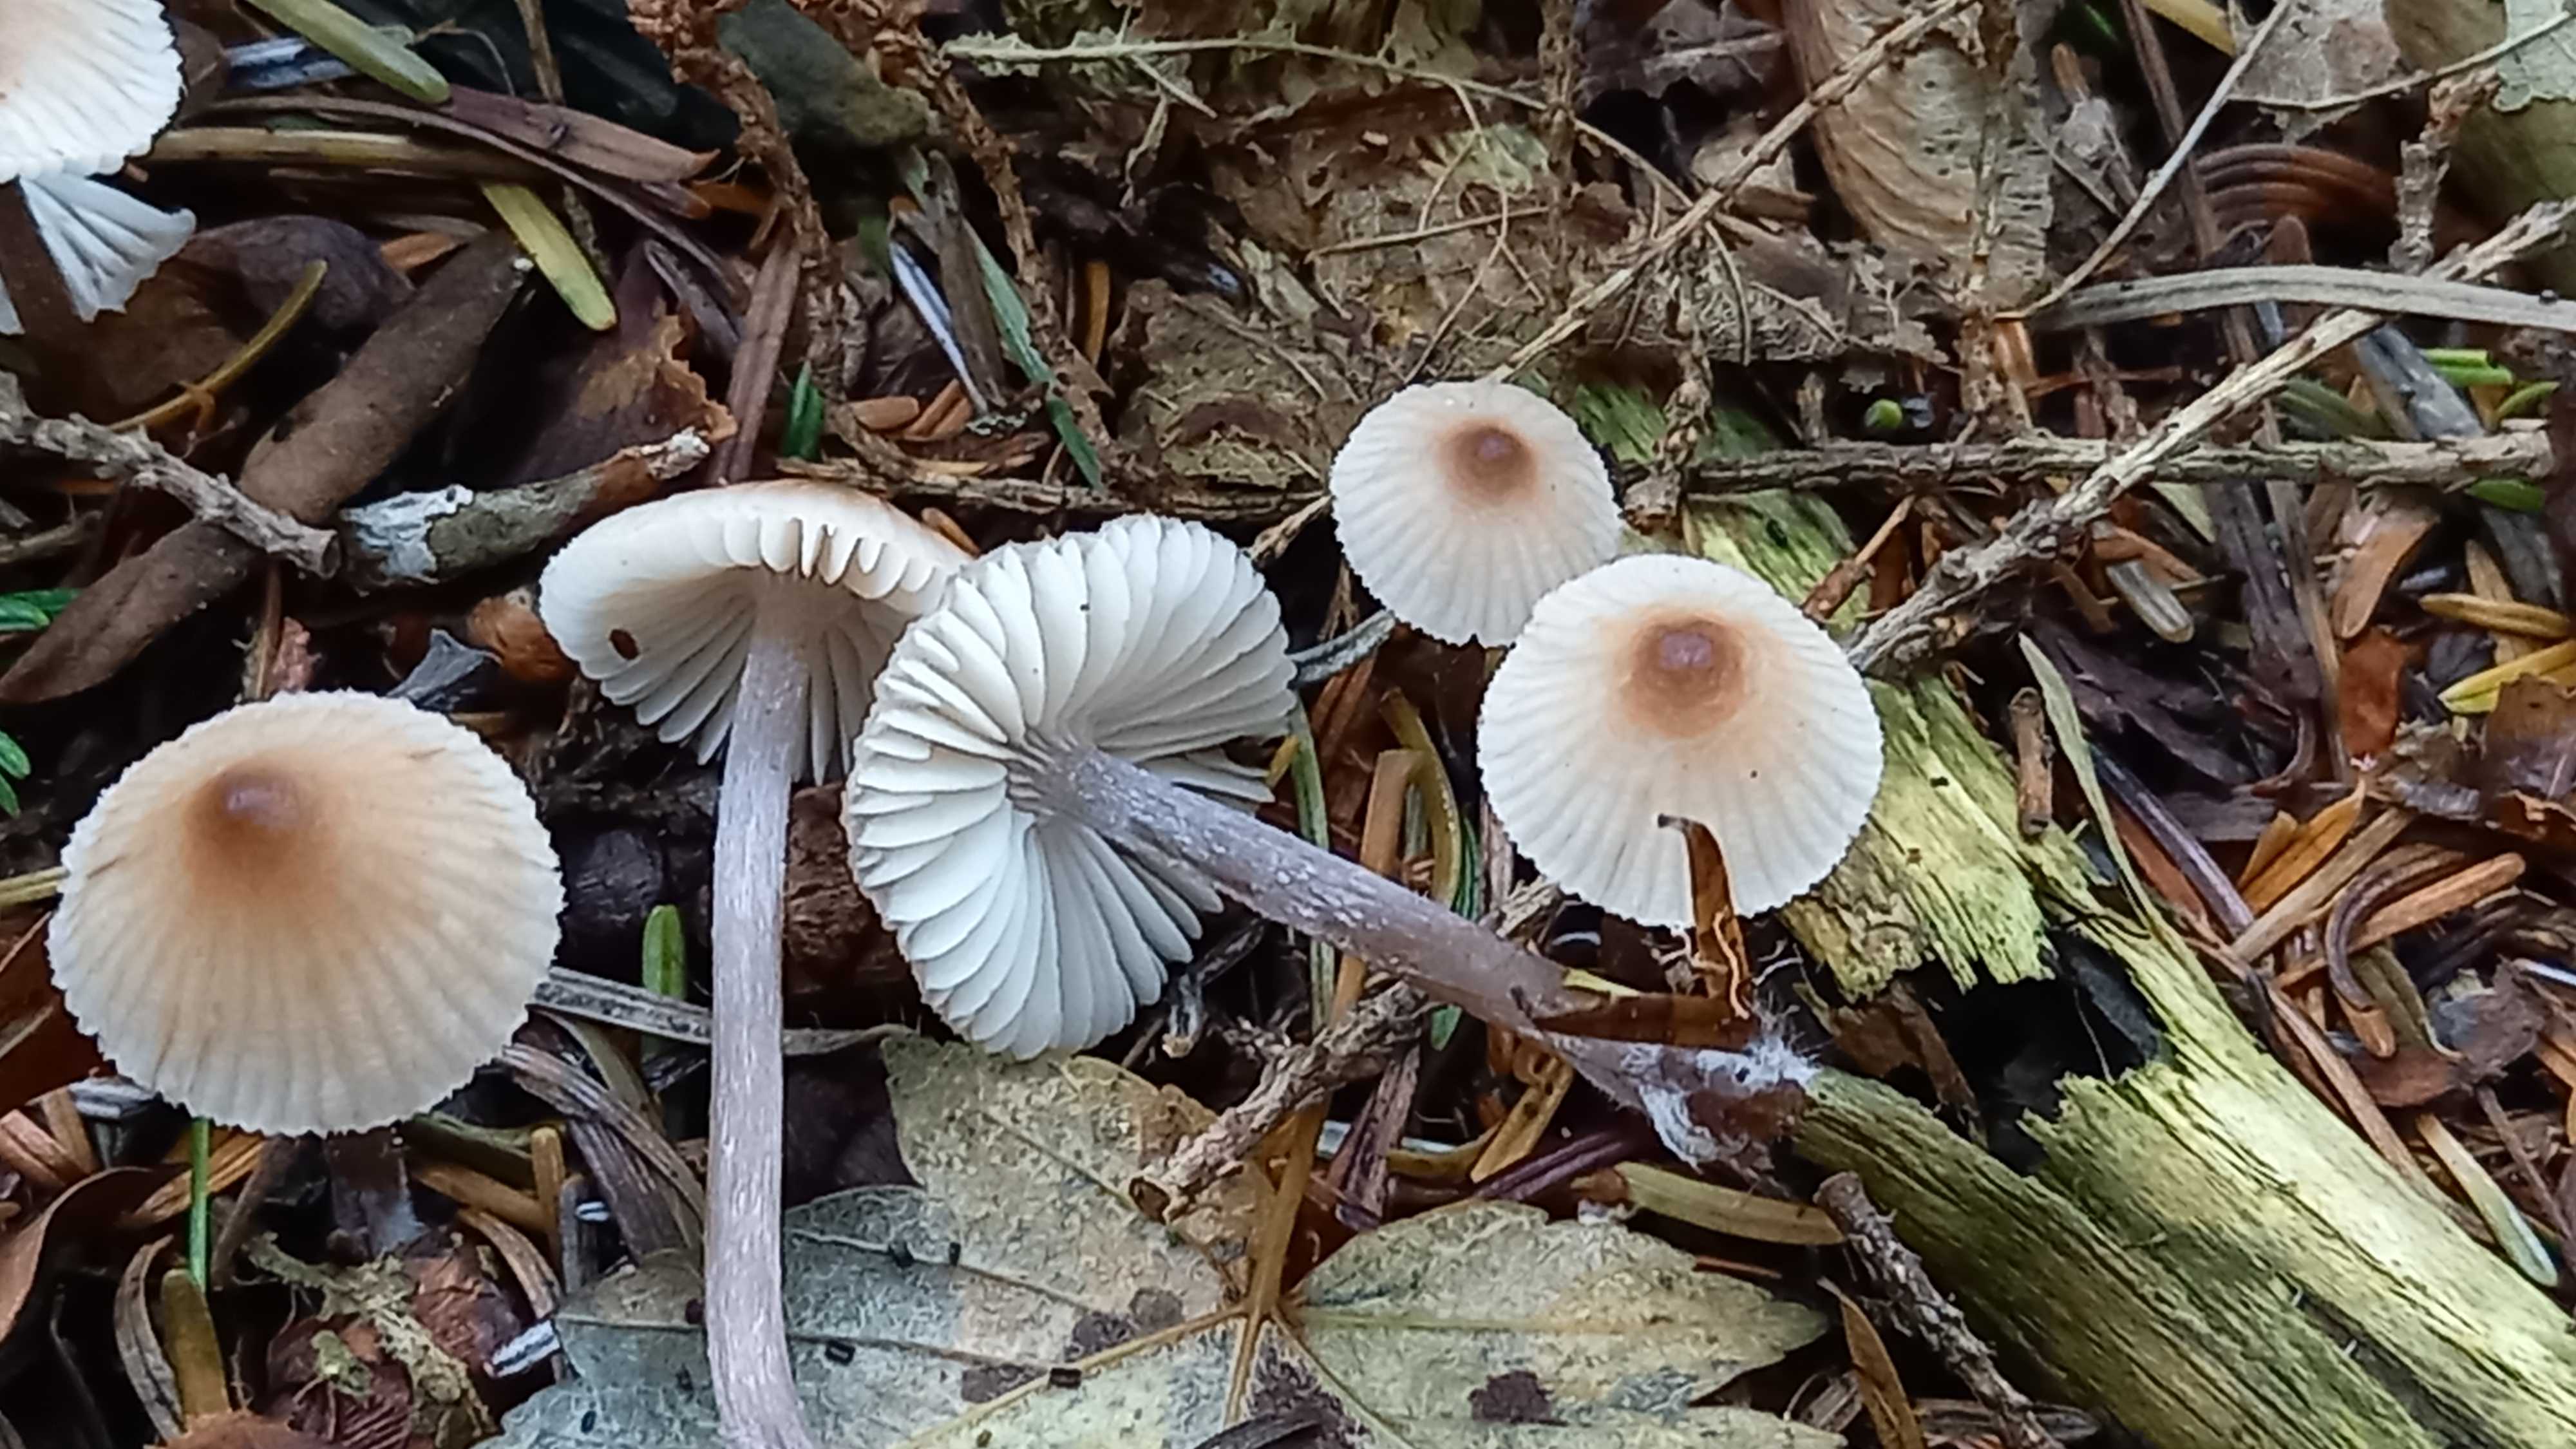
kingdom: Fungi
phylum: Basidiomycota
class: Agaricomycetes
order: Agaricales
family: Mycenaceae
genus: Mycena
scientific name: Mycena zephirus
